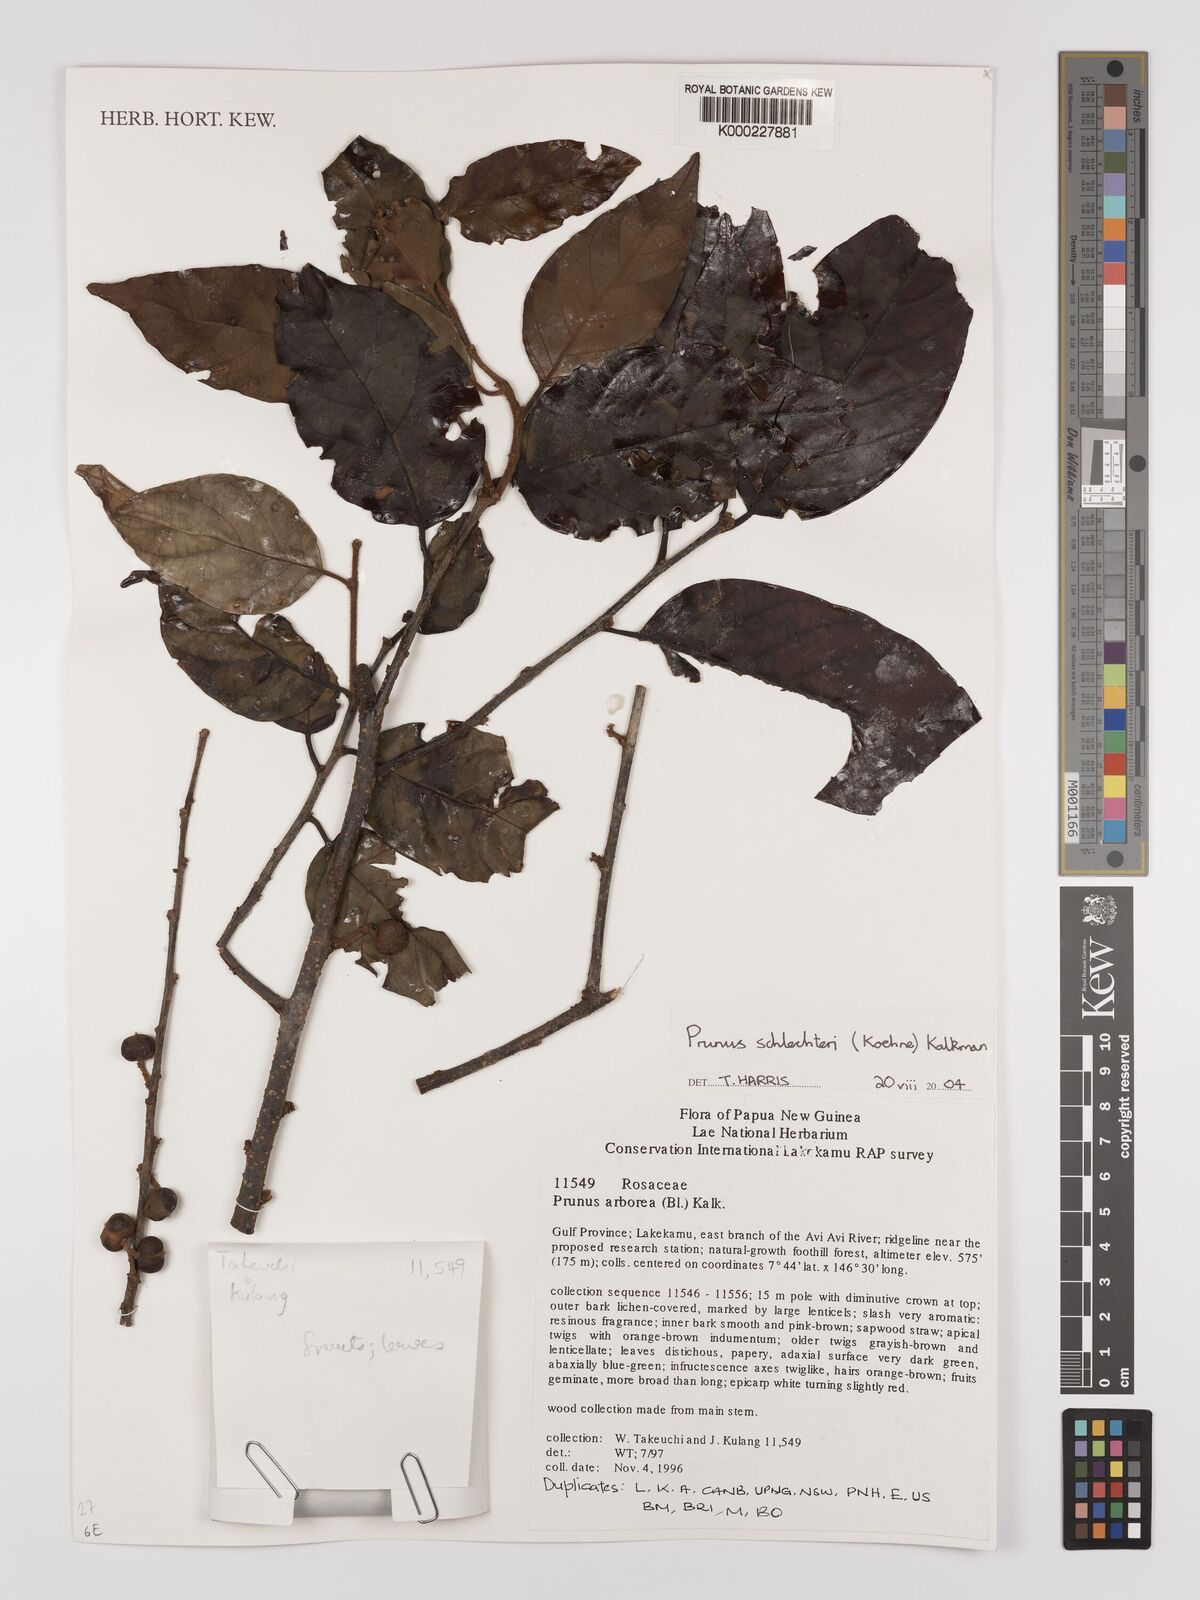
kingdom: Plantae
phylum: Tracheophyta
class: Magnoliopsida
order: Rosales
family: Rosaceae
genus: Prunus
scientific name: Prunus schlechteri
